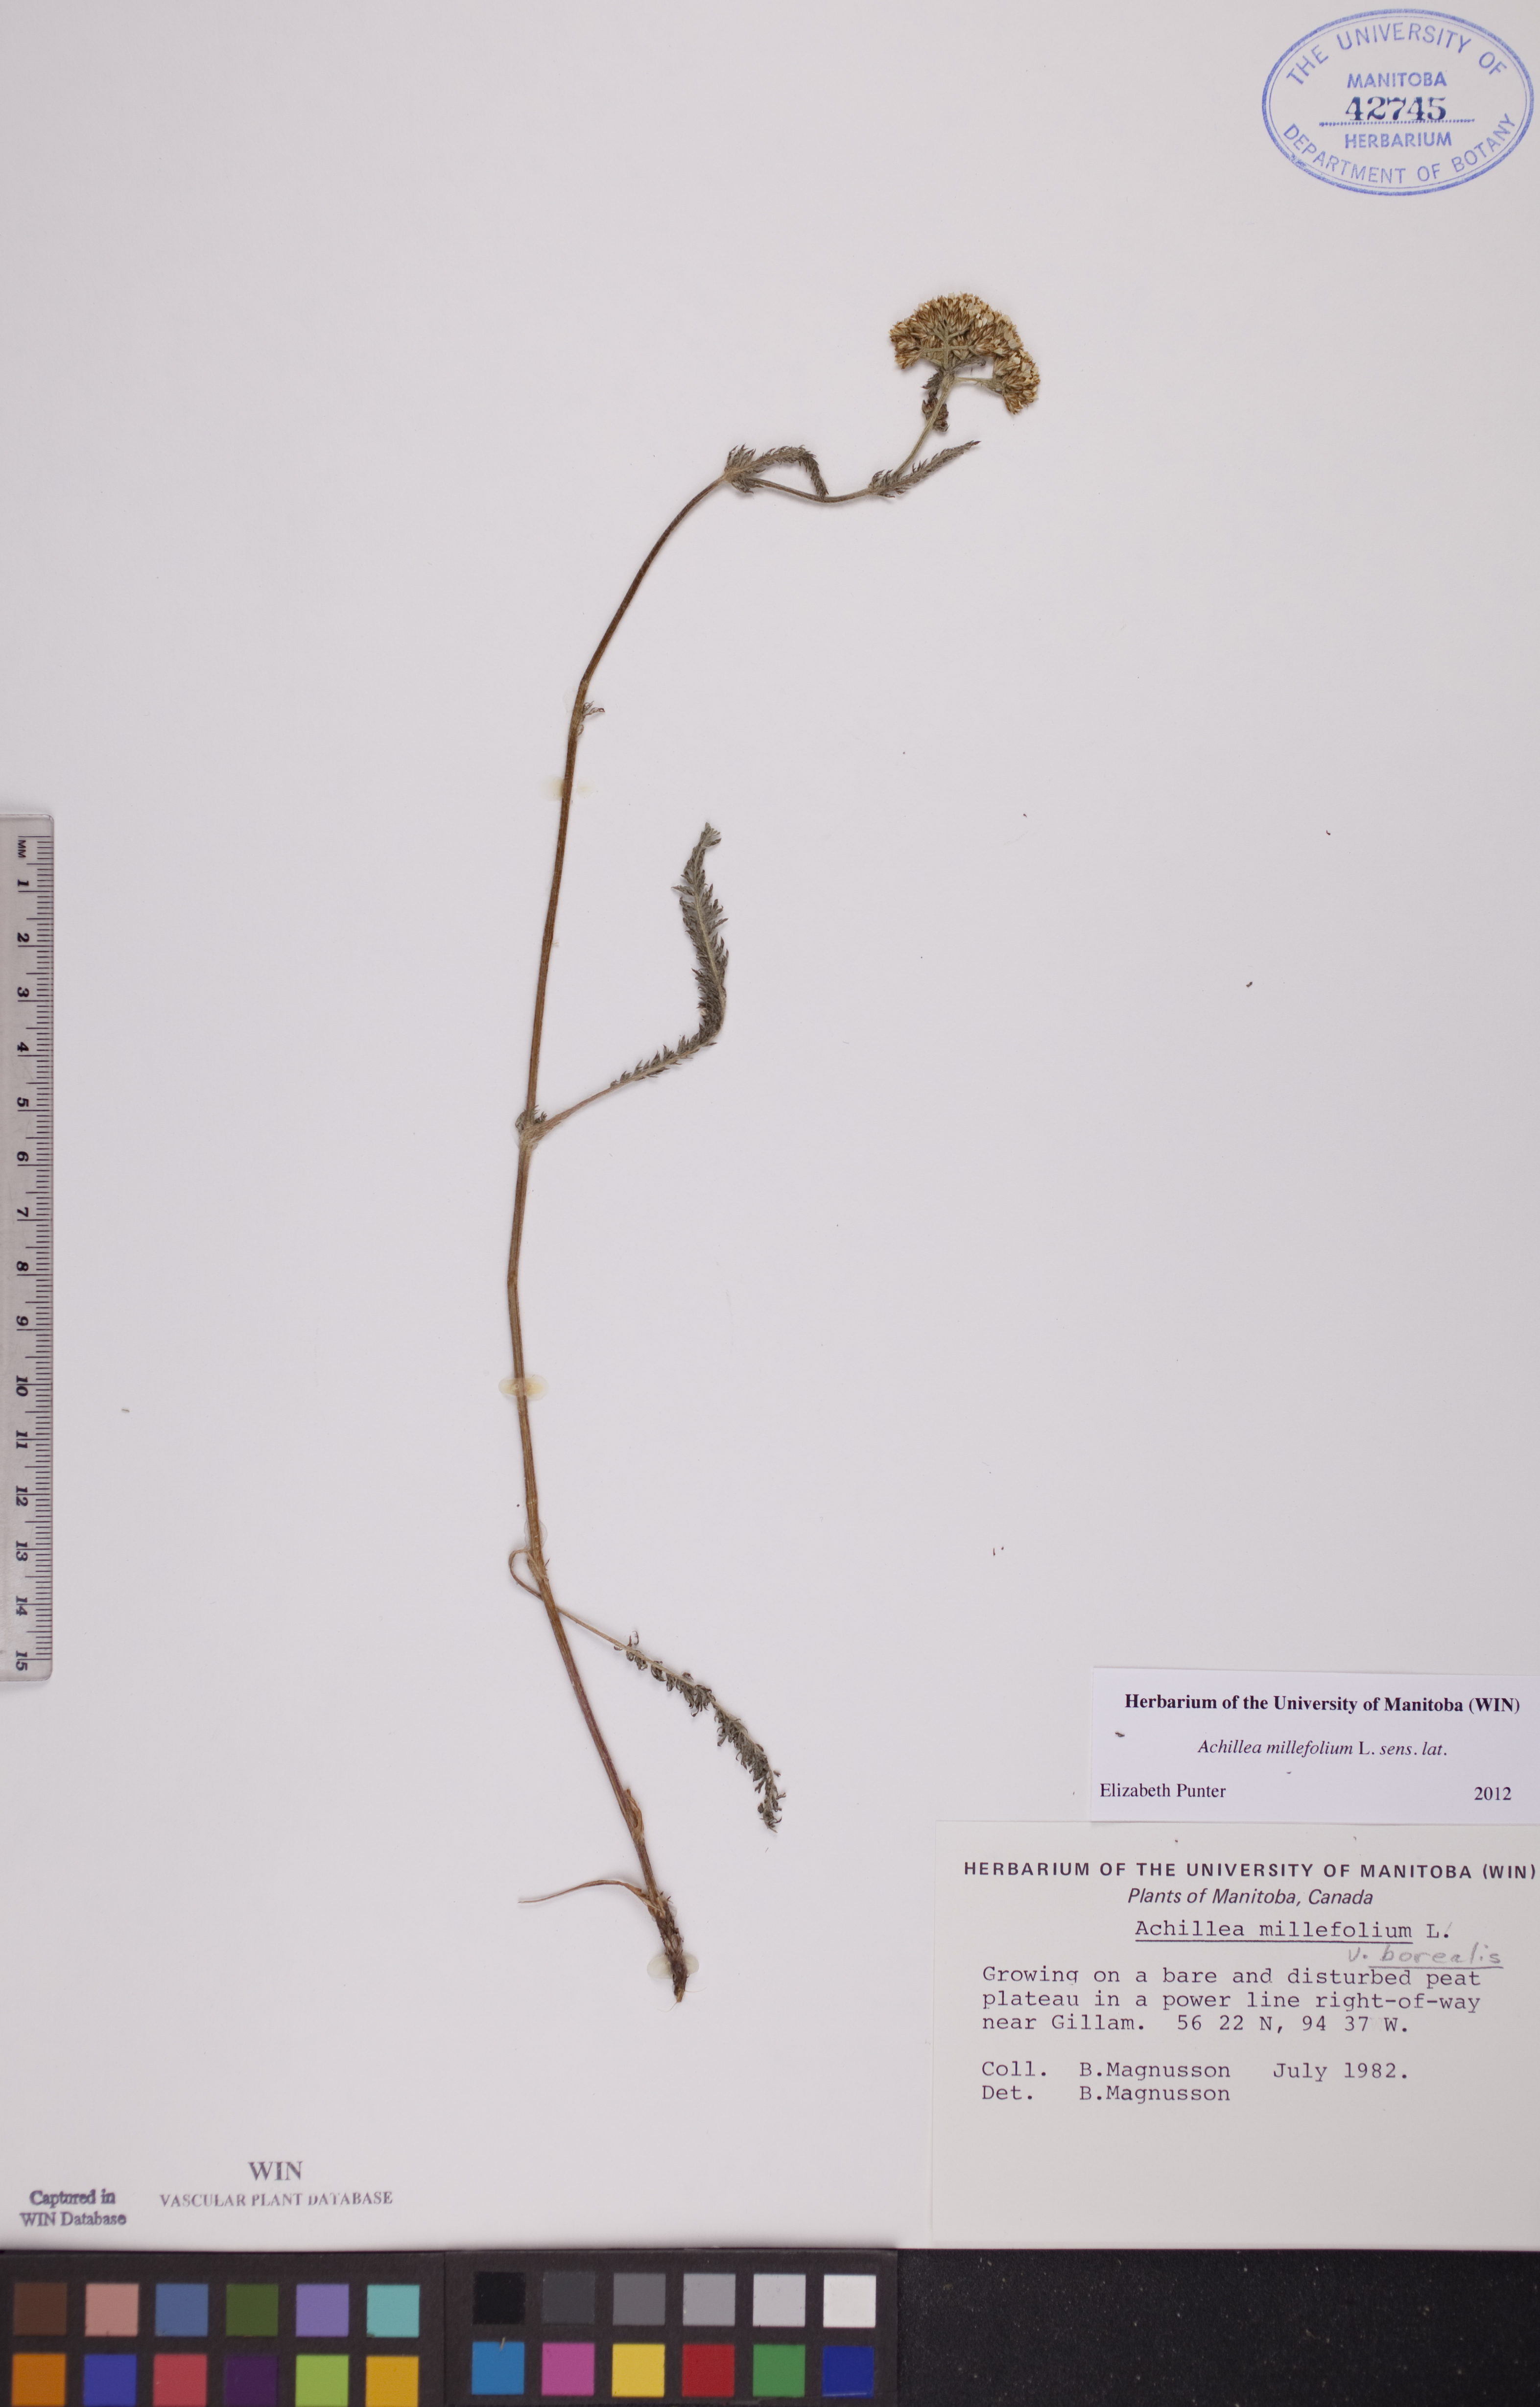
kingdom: Plantae
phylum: Tracheophyta
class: Magnoliopsida
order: Asterales
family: Asteraceae
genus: Achillea
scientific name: Achillea millefolium
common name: Yarrow
